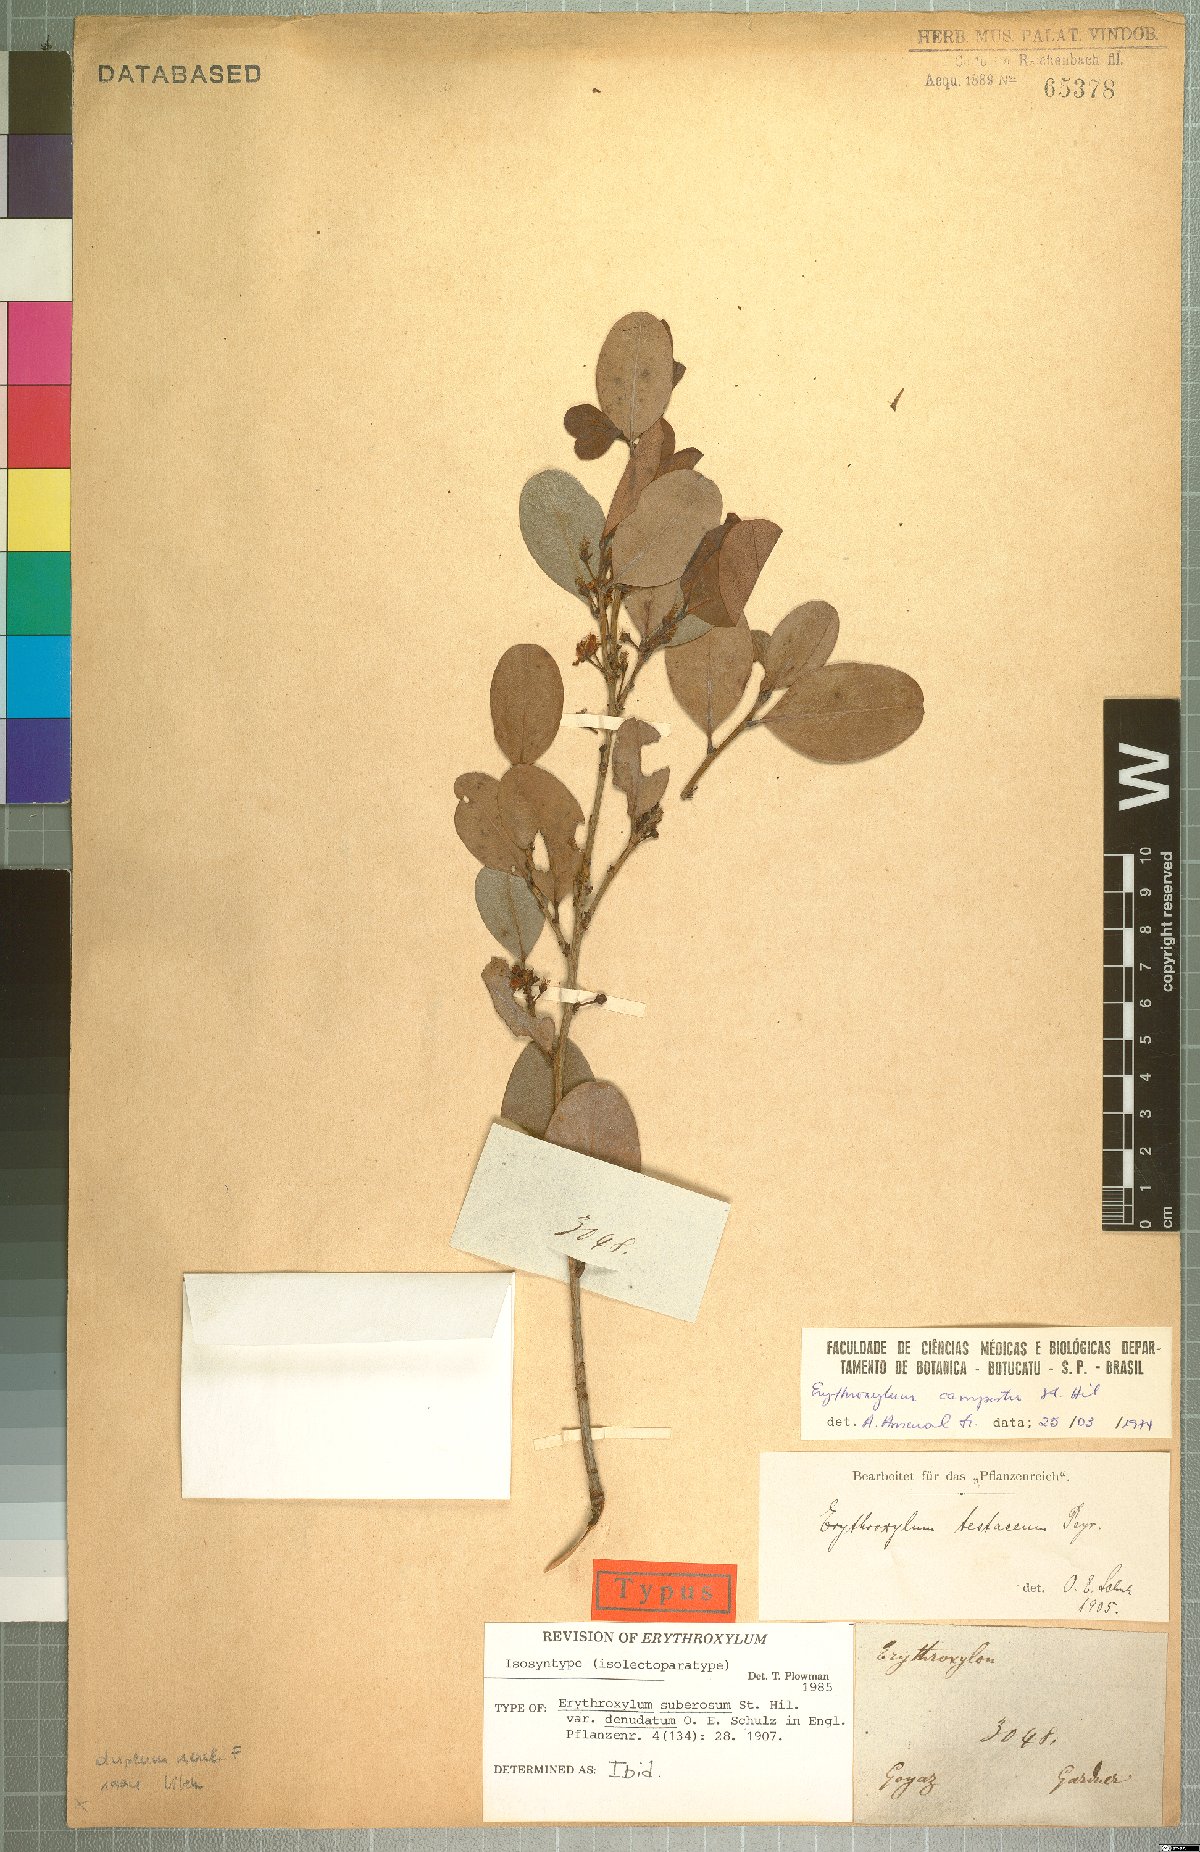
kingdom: Plantae
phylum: Tracheophyta
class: Magnoliopsida
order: Malpighiales
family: Erythroxylaceae
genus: Erythroxylum
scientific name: Erythroxylum rimosum
